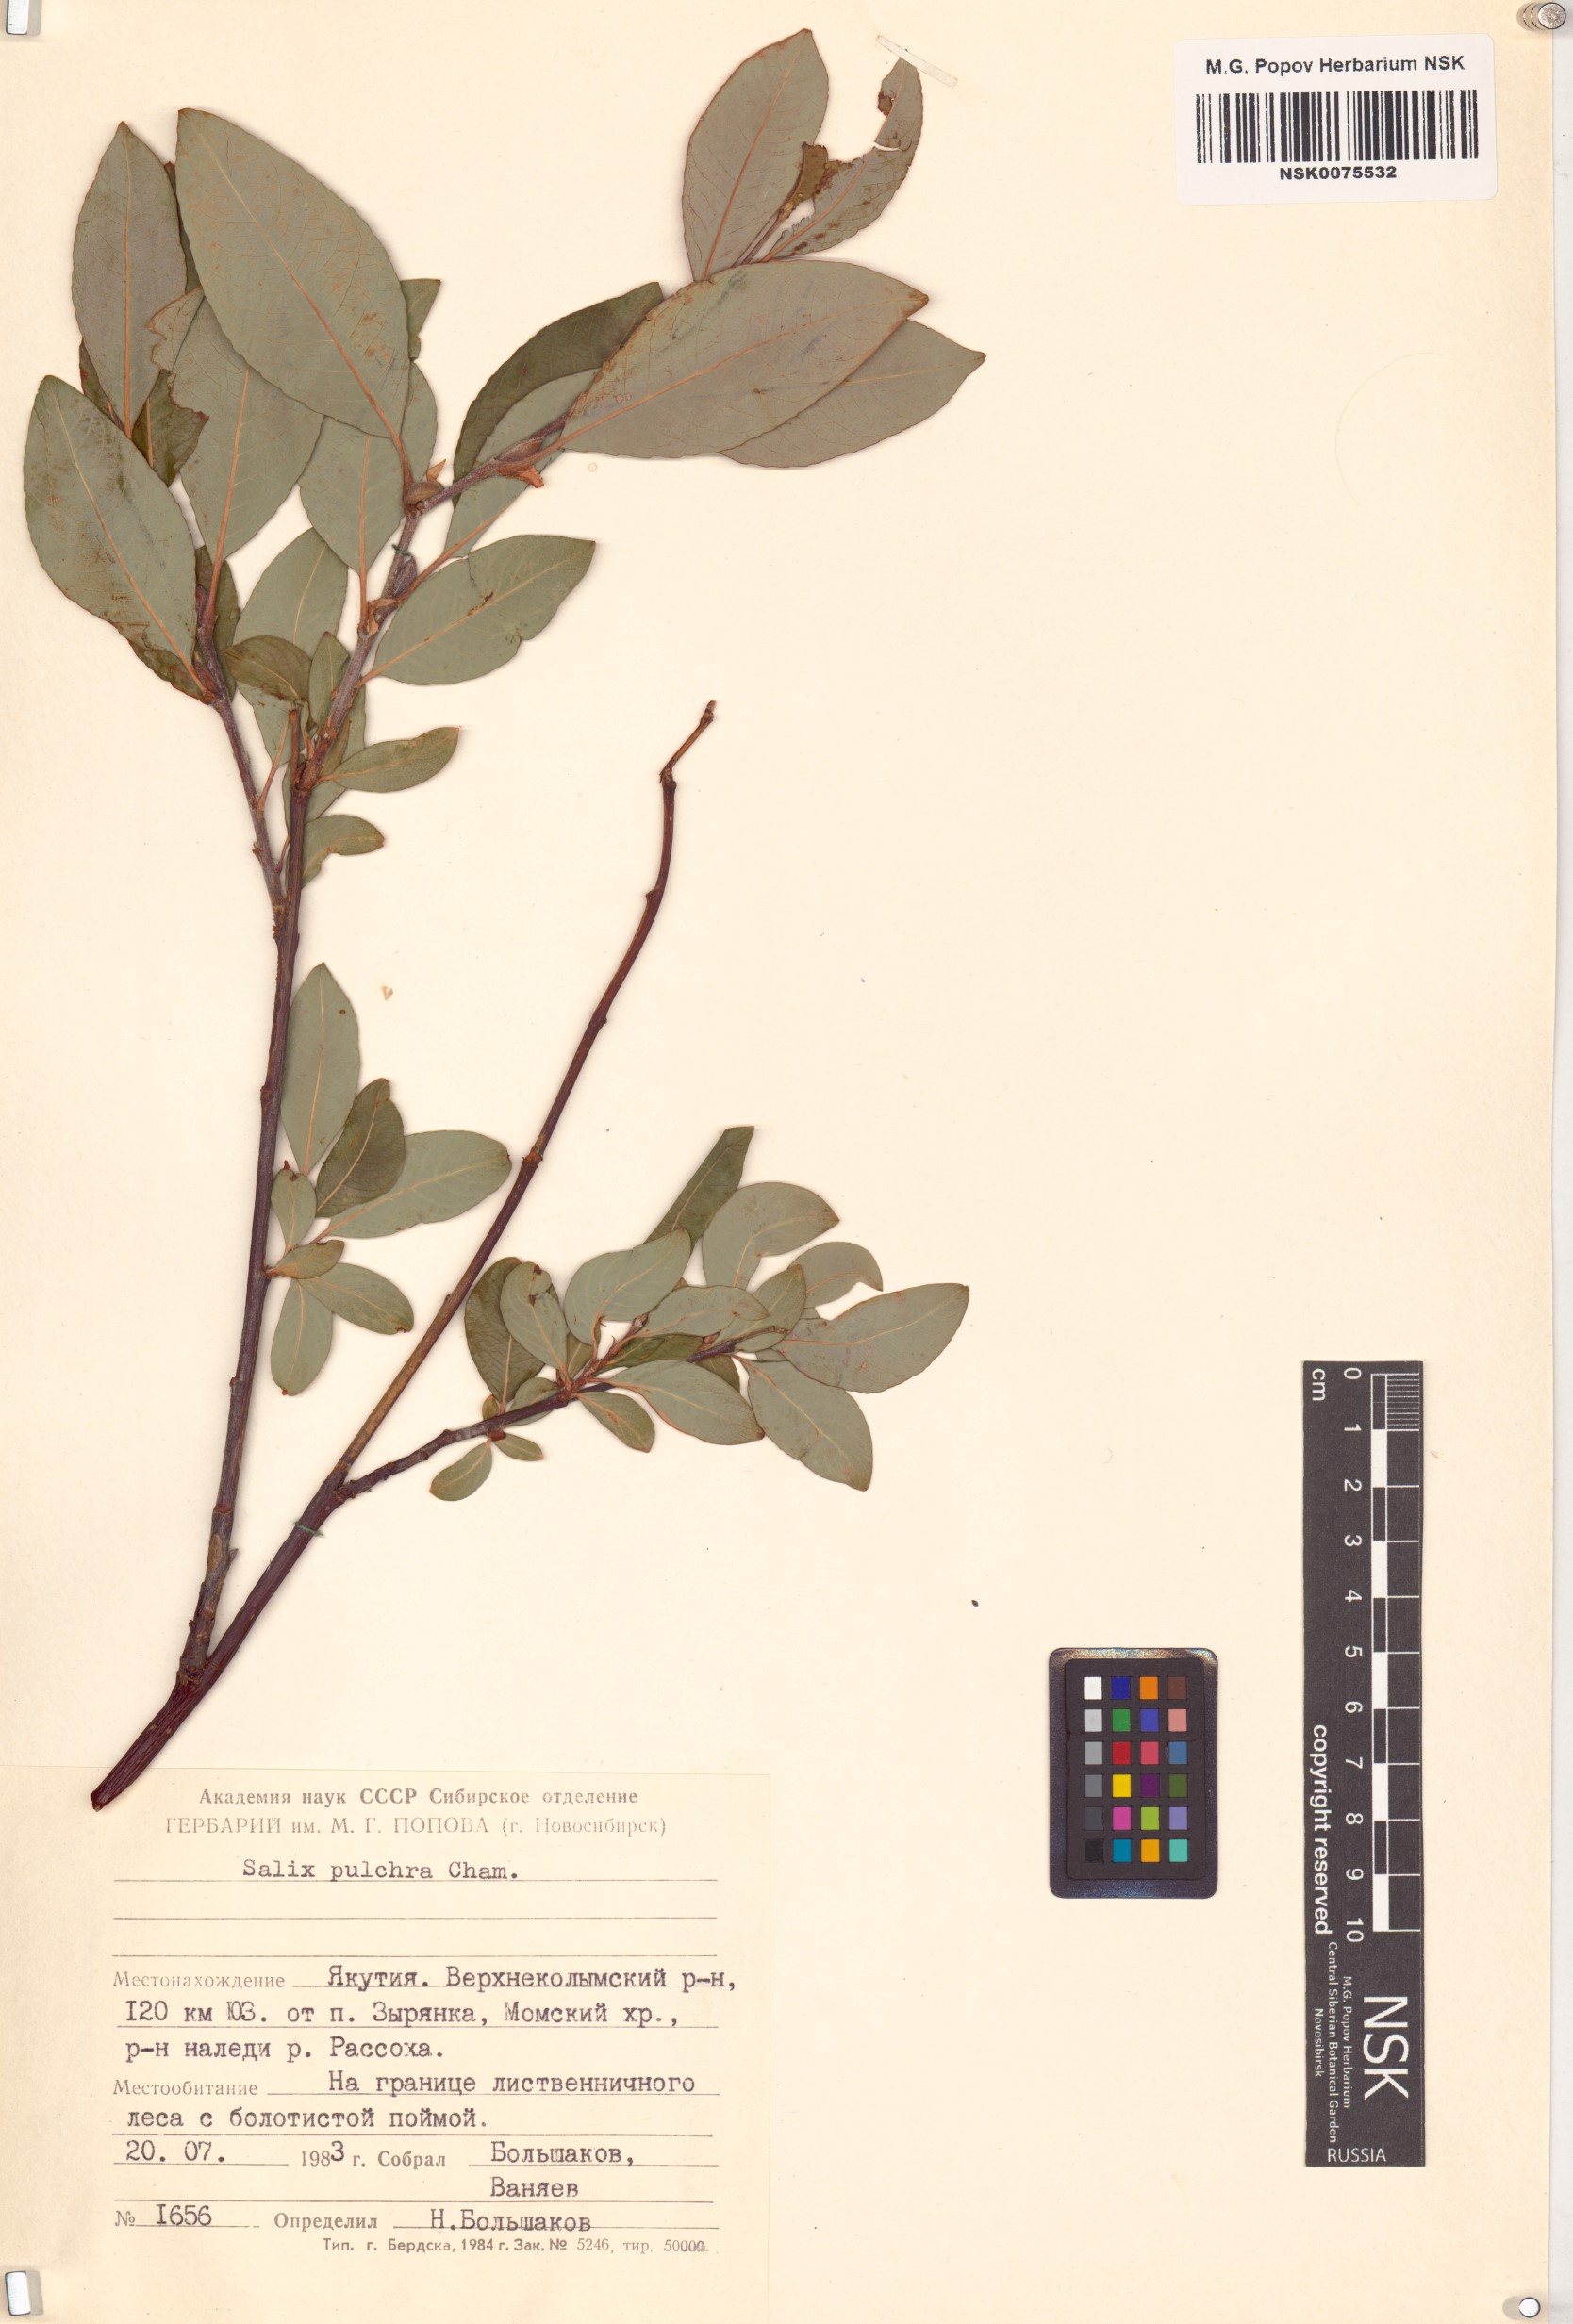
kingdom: Plantae
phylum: Tracheophyta
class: Magnoliopsida
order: Malpighiales
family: Salicaceae
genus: Salix
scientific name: Salix pulchra
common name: Diamond-leaved willow
